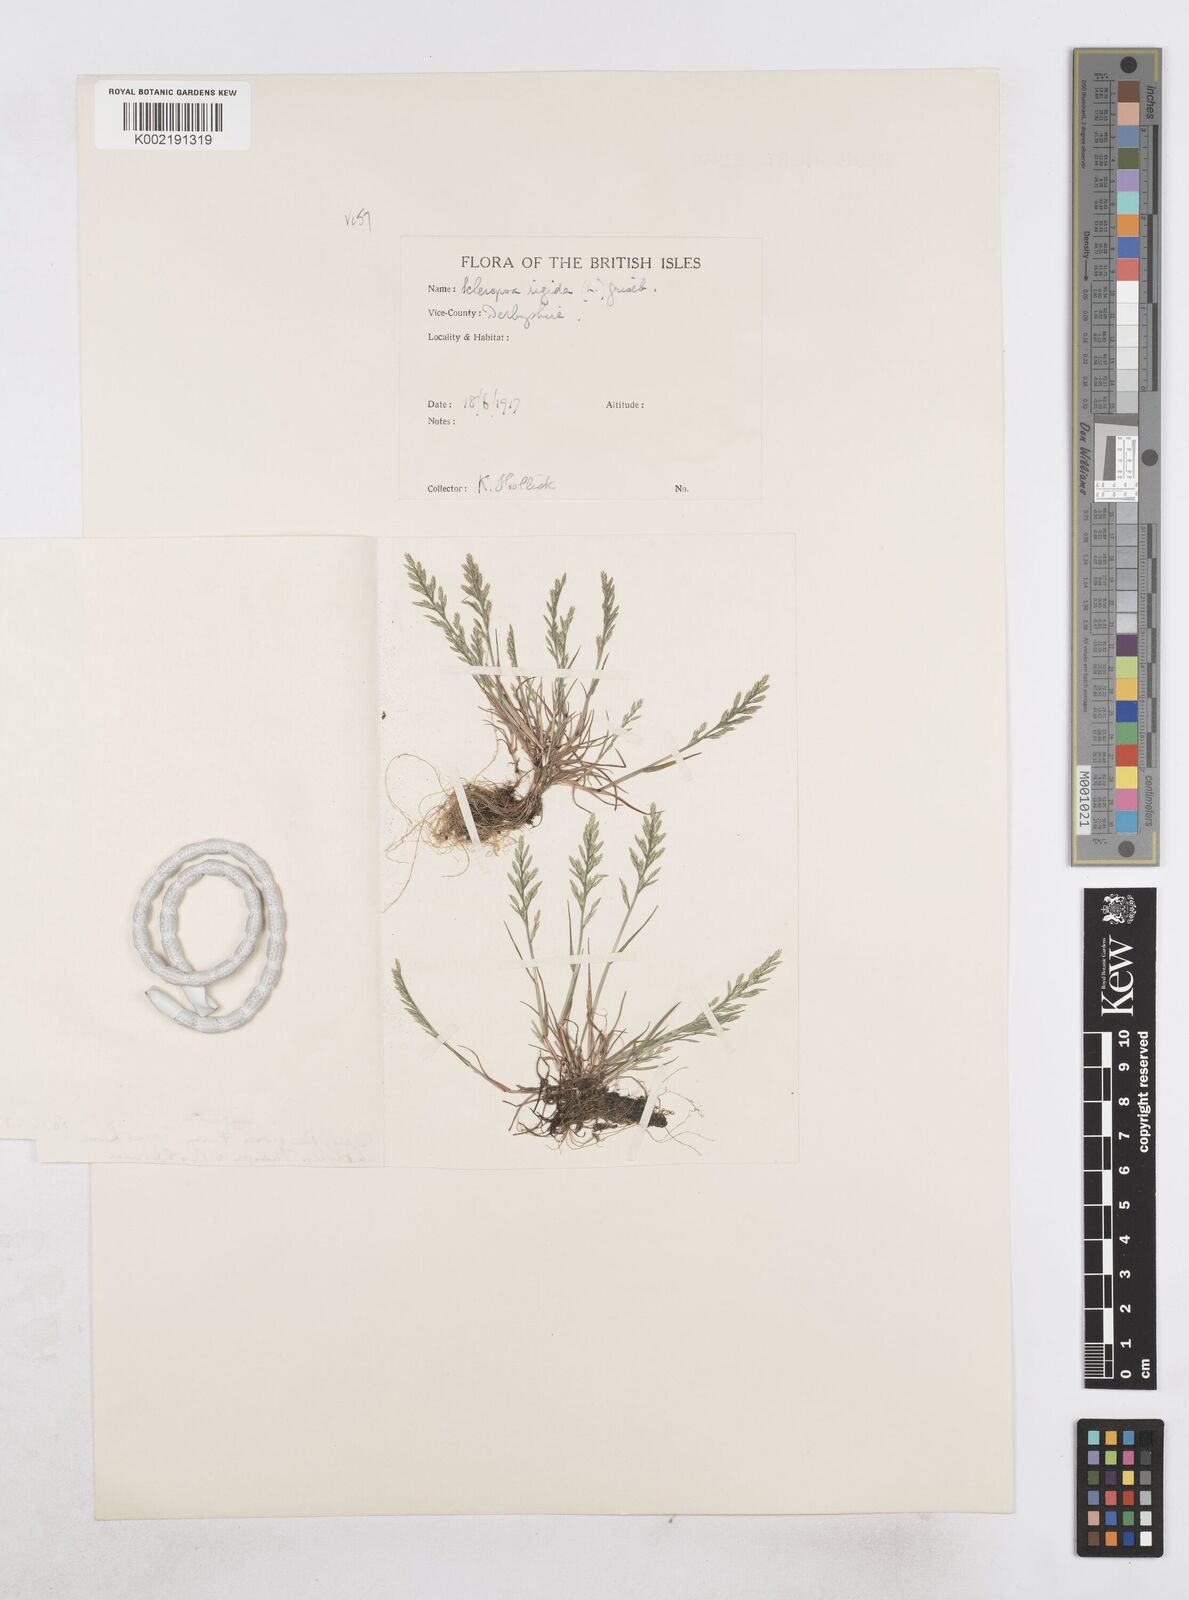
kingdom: Plantae
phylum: Tracheophyta
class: Liliopsida
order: Poales
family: Poaceae
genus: Catapodium
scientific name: Catapodium rigidum
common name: Fern-grass
